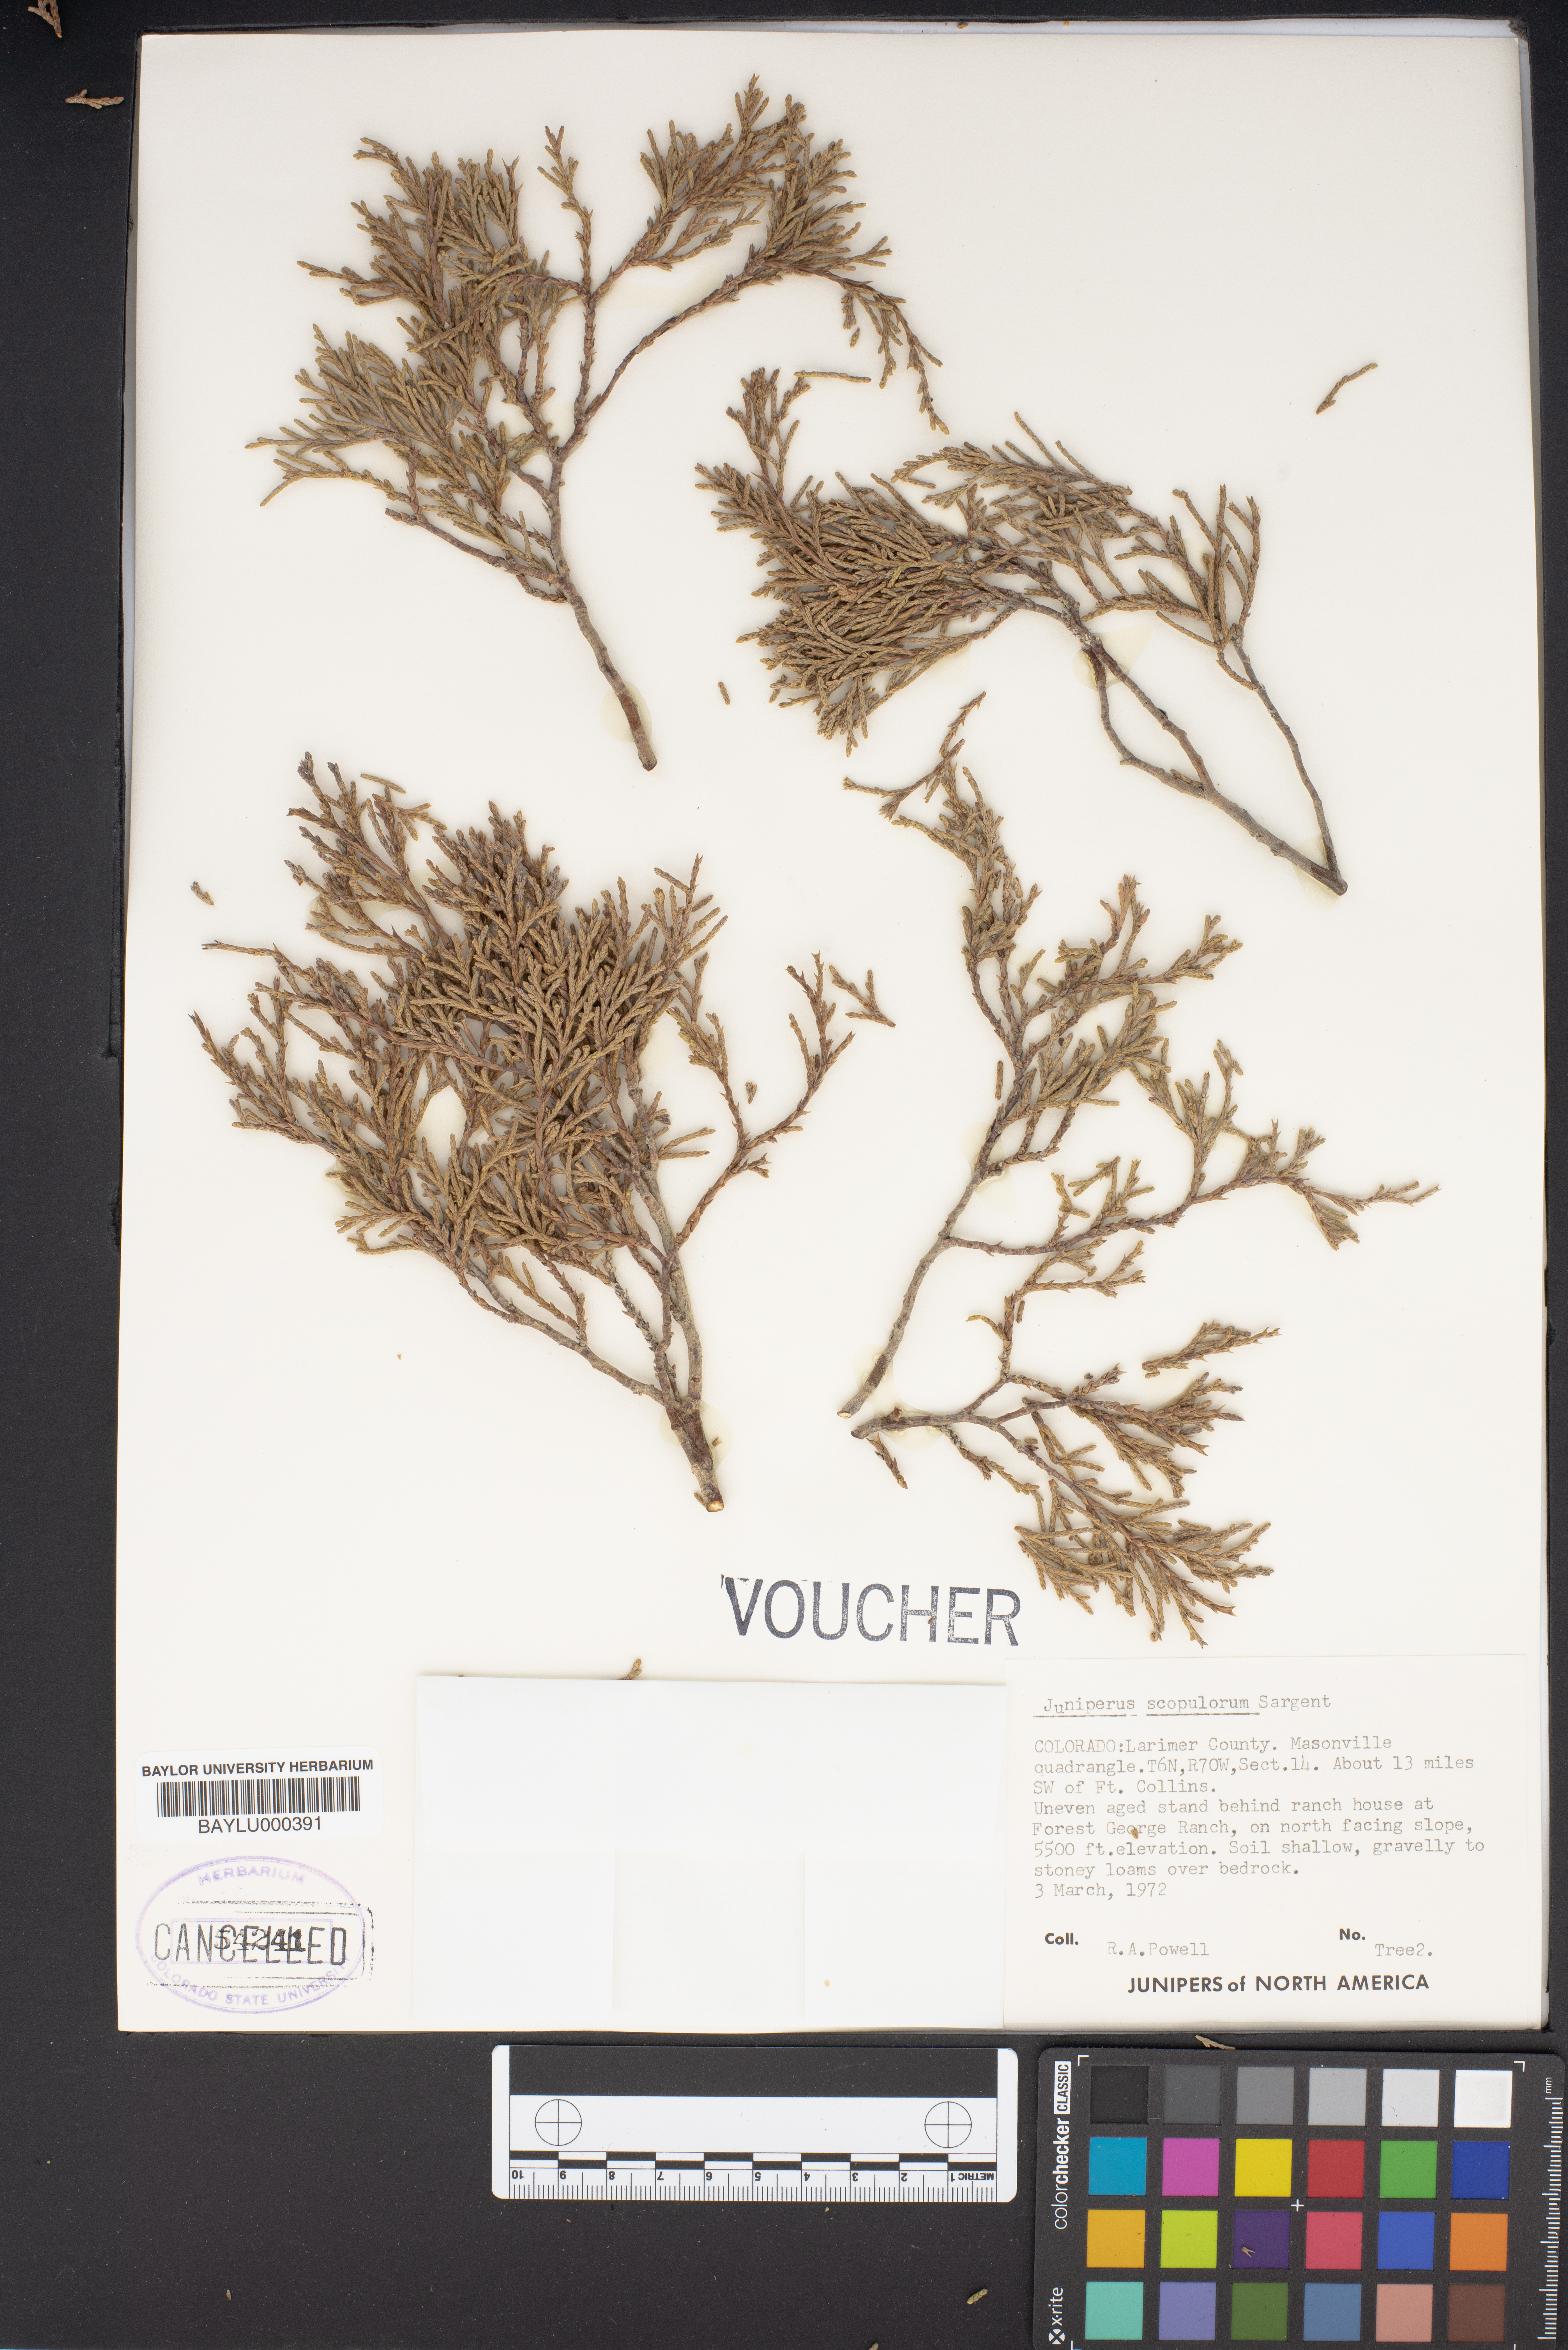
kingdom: Plantae
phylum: Tracheophyta
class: Pinopsida
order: Pinales
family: Cupressaceae
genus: Juniperus
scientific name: Juniperus scopulorum
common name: Rocky mountain juniper
